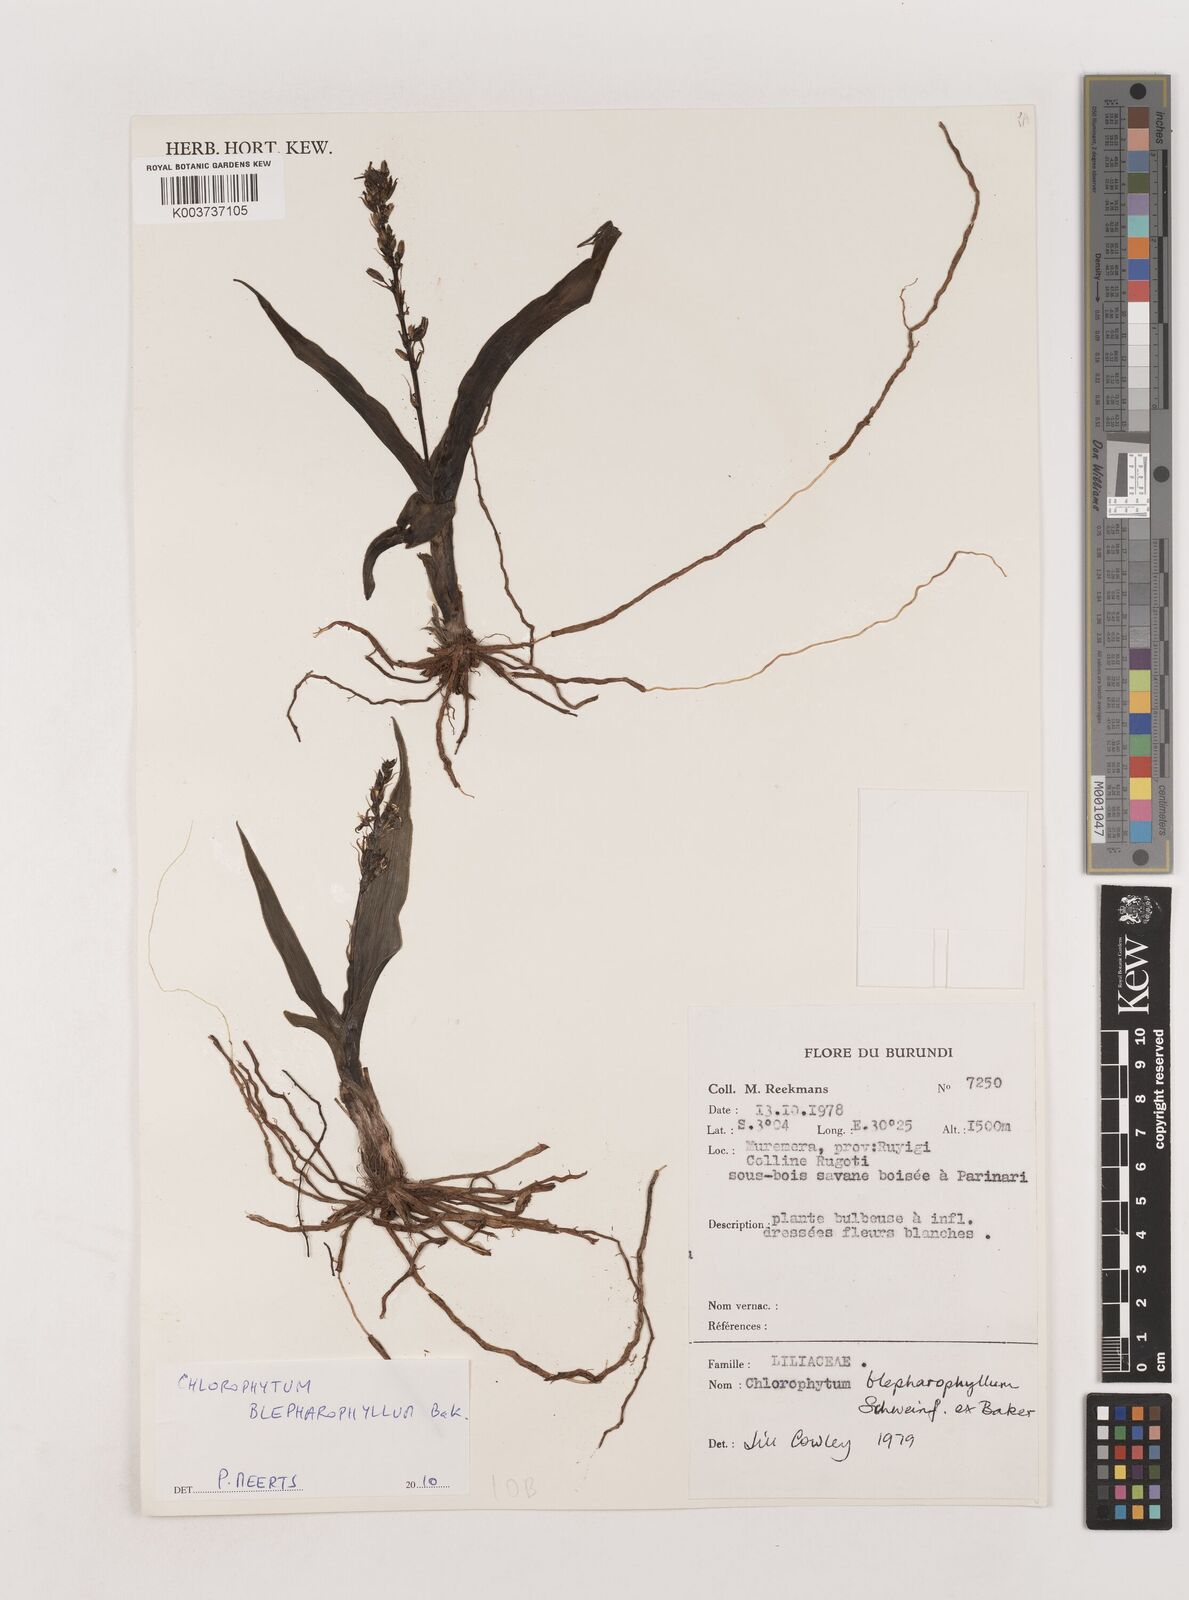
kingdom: Plantae
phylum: Tracheophyta
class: Liliopsida
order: Asparagales
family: Asparagaceae
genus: Chlorophytum
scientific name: Chlorophytum blepharophyllum
